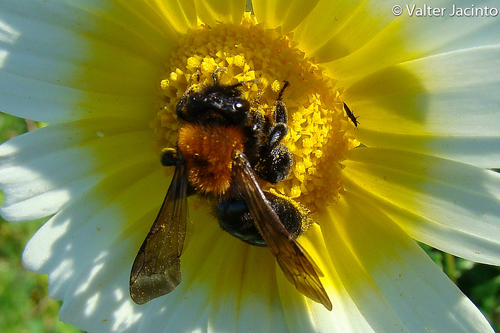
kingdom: Animalia
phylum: Arthropoda
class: Insecta
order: Hymenoptera
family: Andrenidae
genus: Andrena
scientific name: Andrena thoracica
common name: Cliff mining bee
